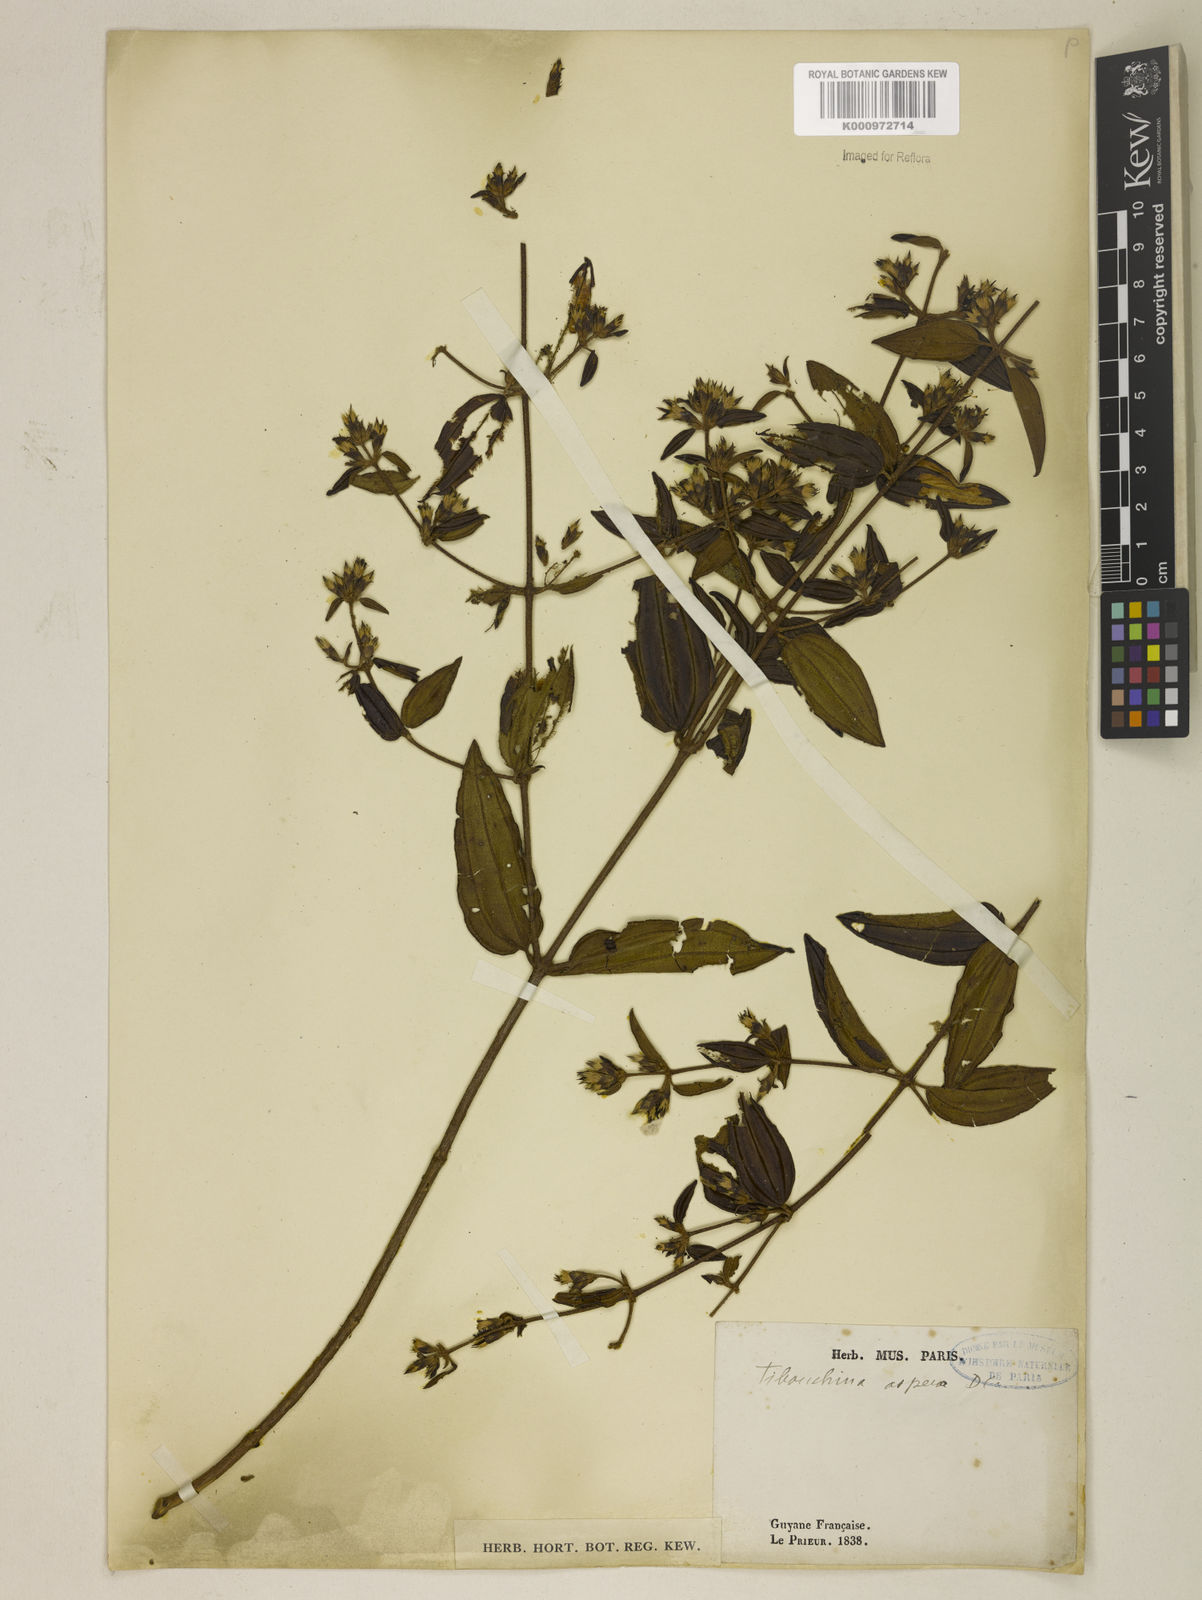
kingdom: Plantae
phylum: Tracheophyta
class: Magnoliopsida
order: Myrtales
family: Melastomataceae
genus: Tibouchina
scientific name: Tibouchina aspera
